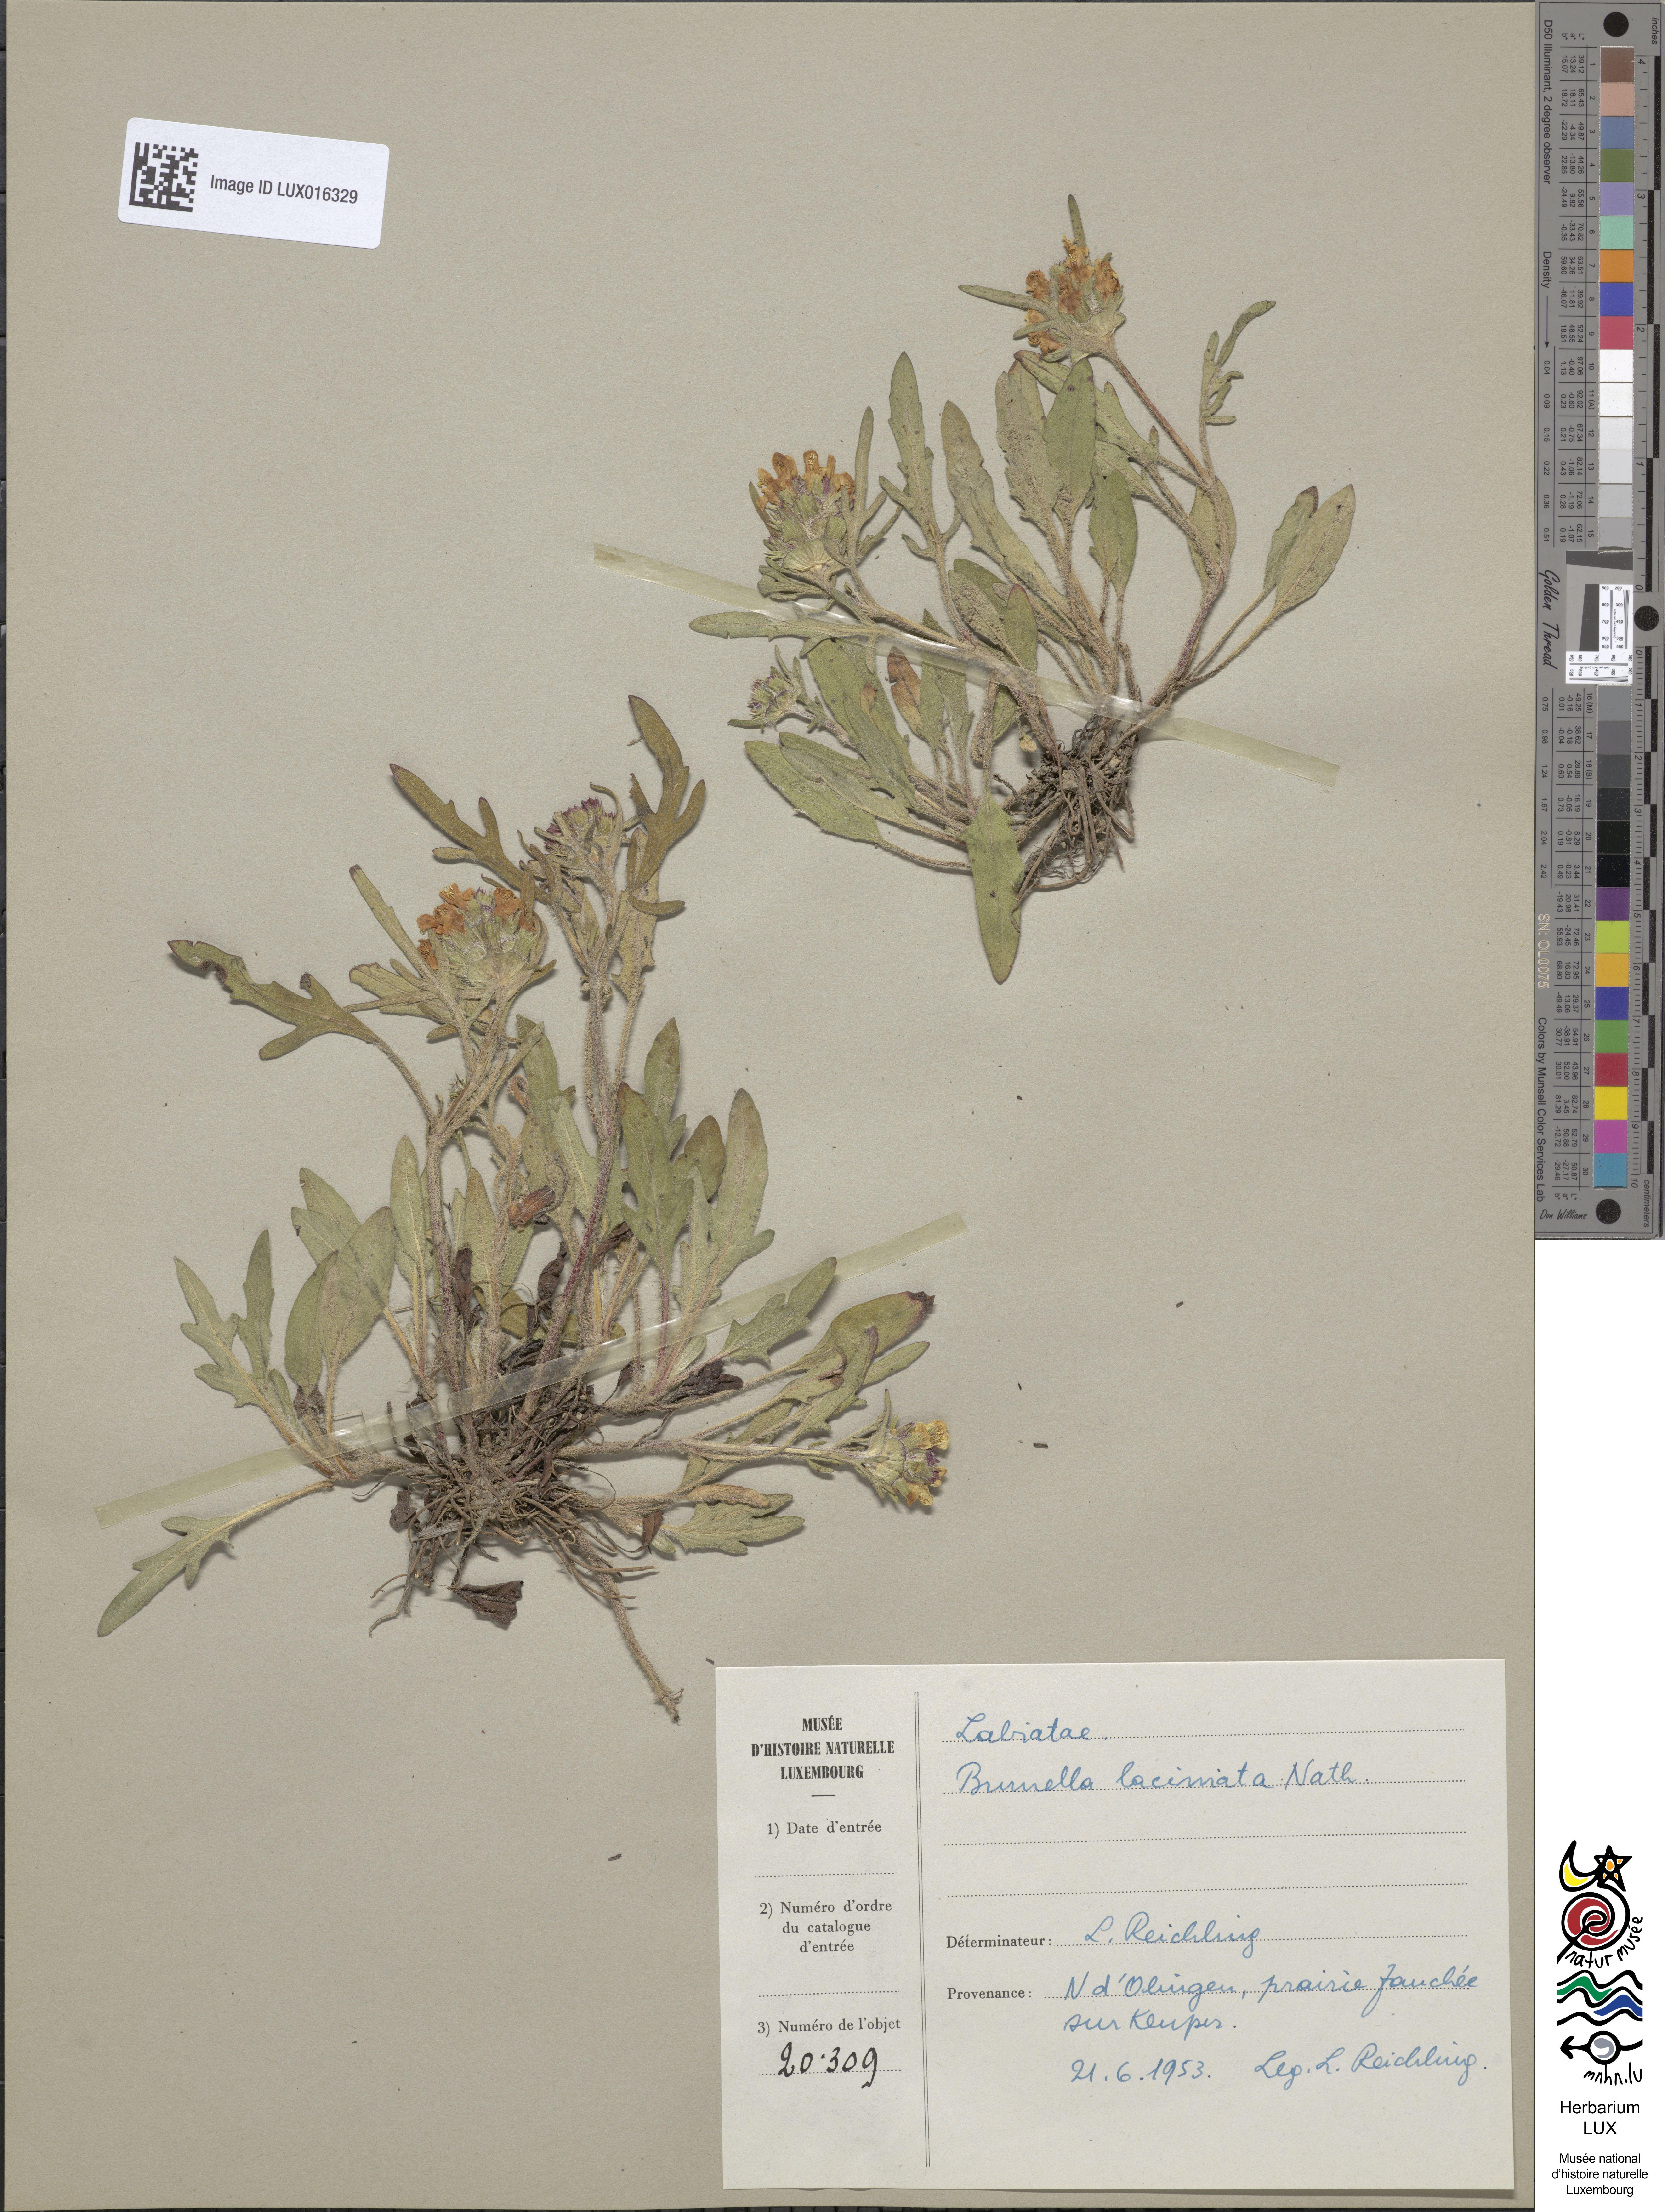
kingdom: Plantae
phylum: Tracheophyta
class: Magnoliopsida
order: Lamiales
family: Lamiaceae
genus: Prunella
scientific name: Prunella laciniata
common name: Cut-leaved selfheal
